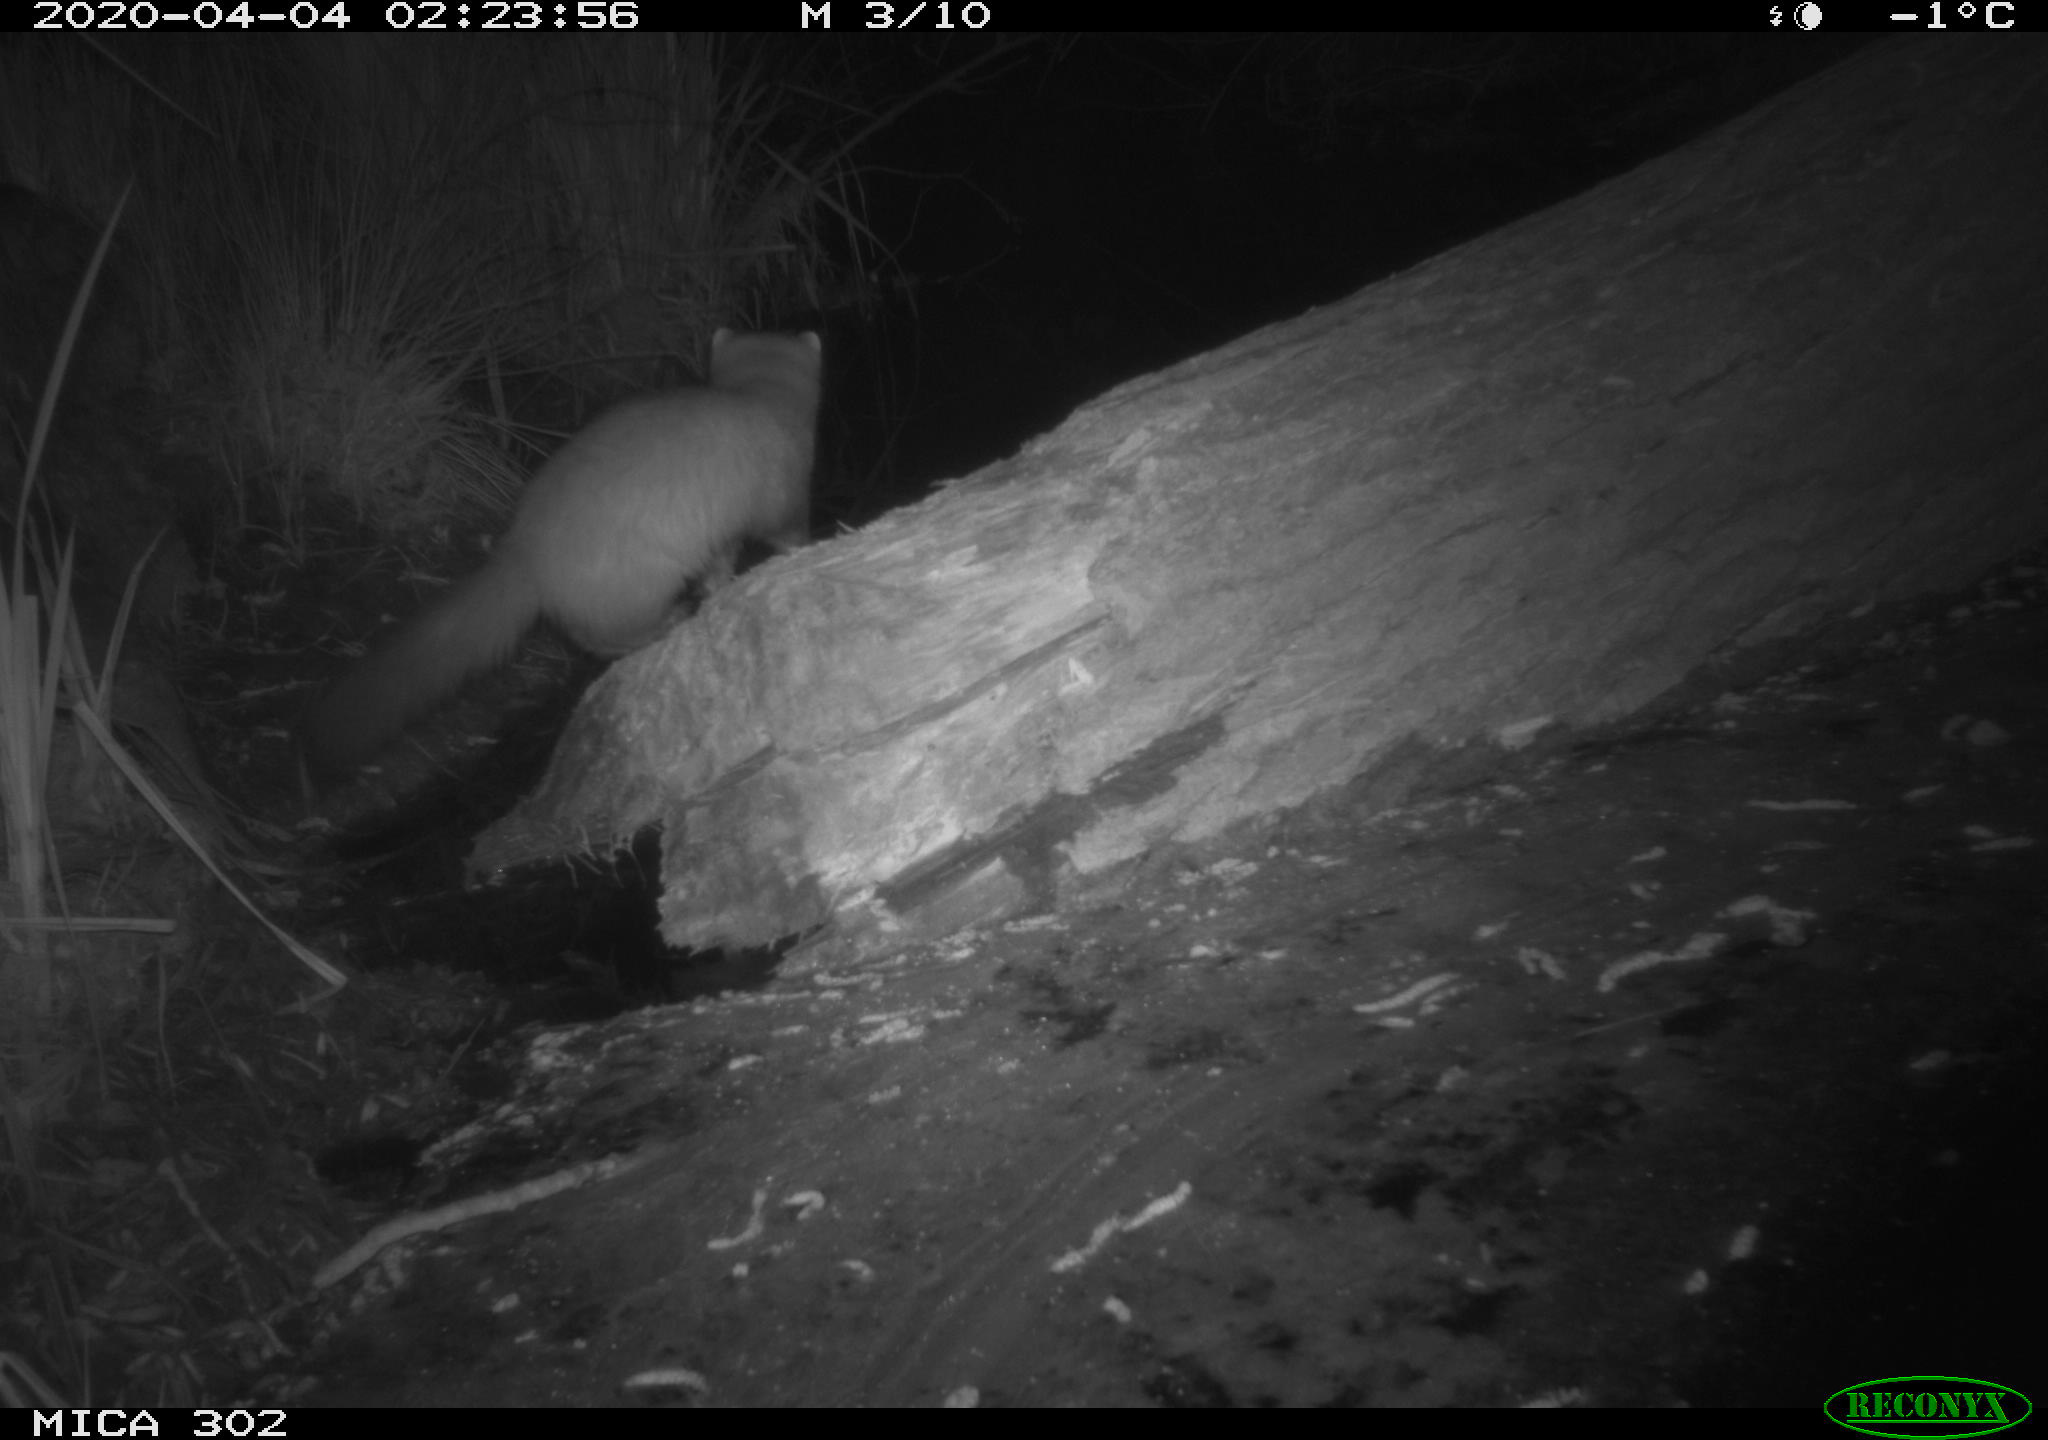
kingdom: Animalia
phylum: Chordata
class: Mammalia
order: Carnivora
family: Mustelidae
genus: Martes
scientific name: Martes foina
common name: Beech marten
